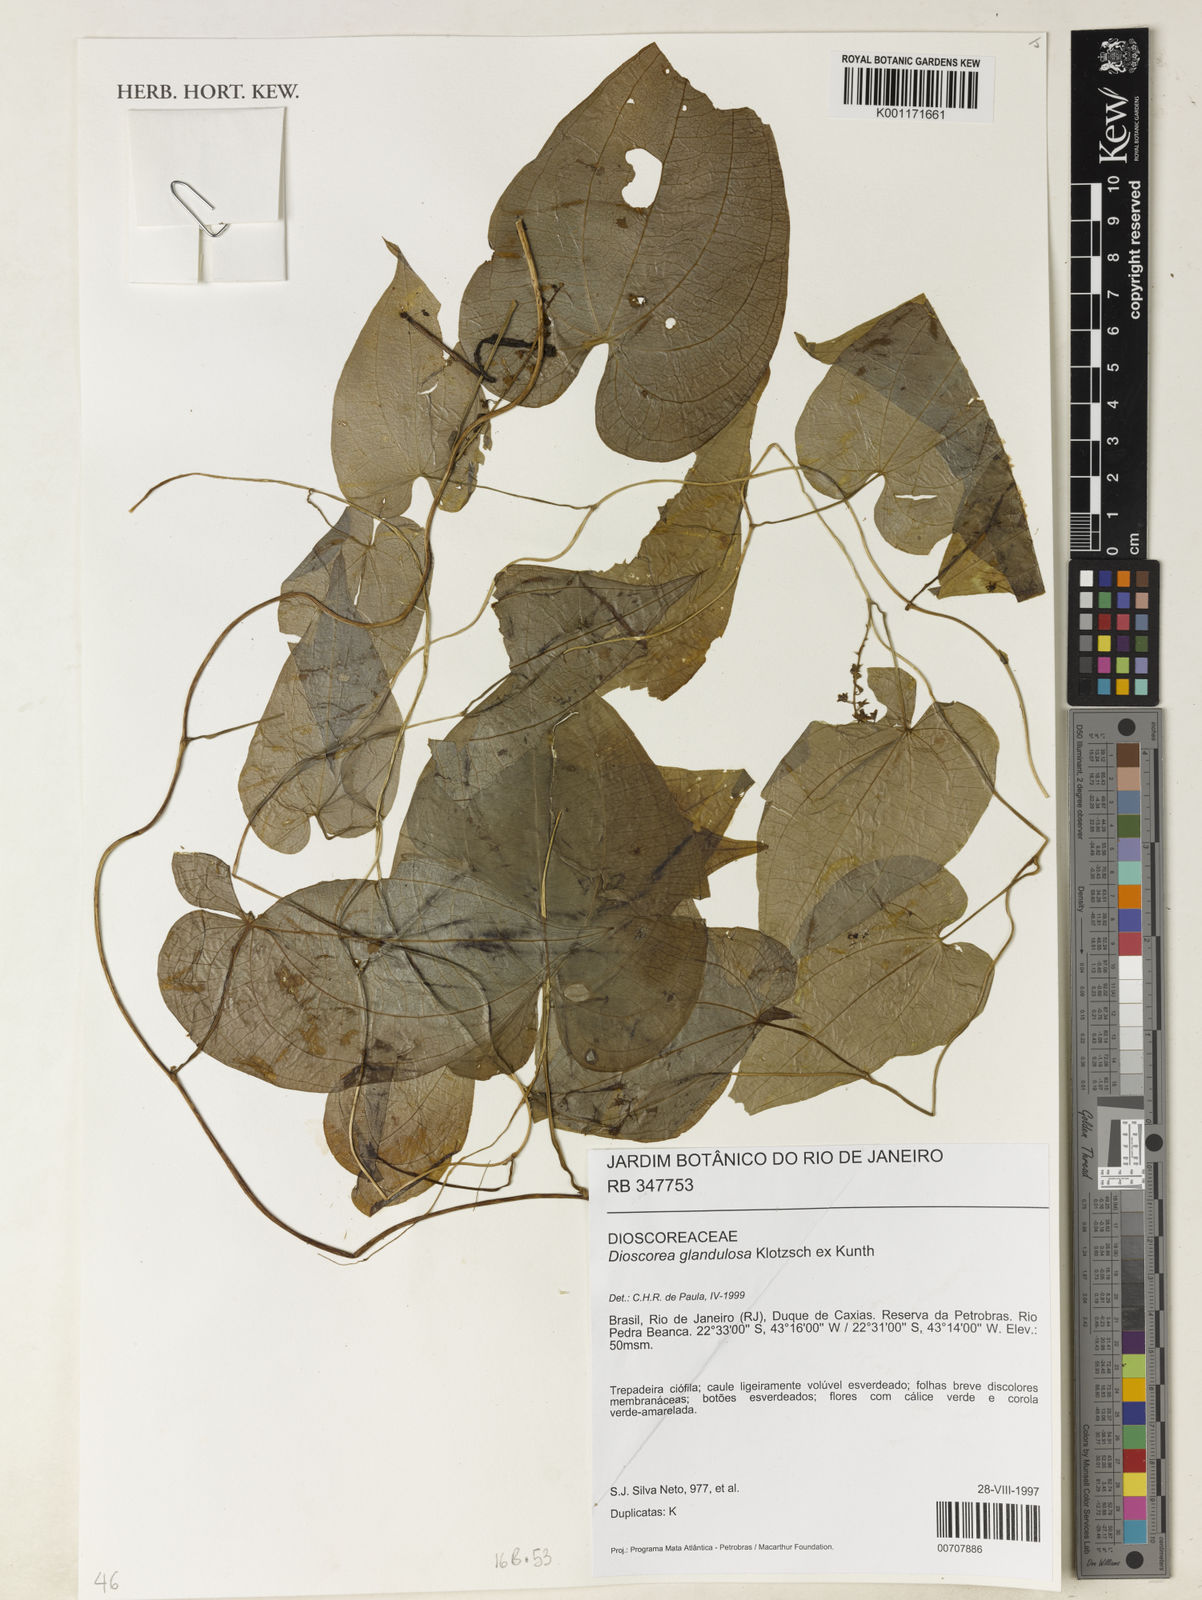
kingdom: Plantae
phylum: Tracheophyta
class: Liliopsida
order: Dioscoreales
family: Dioscoreaceae
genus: Dioscorea
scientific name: Dioscorea glandulosa
